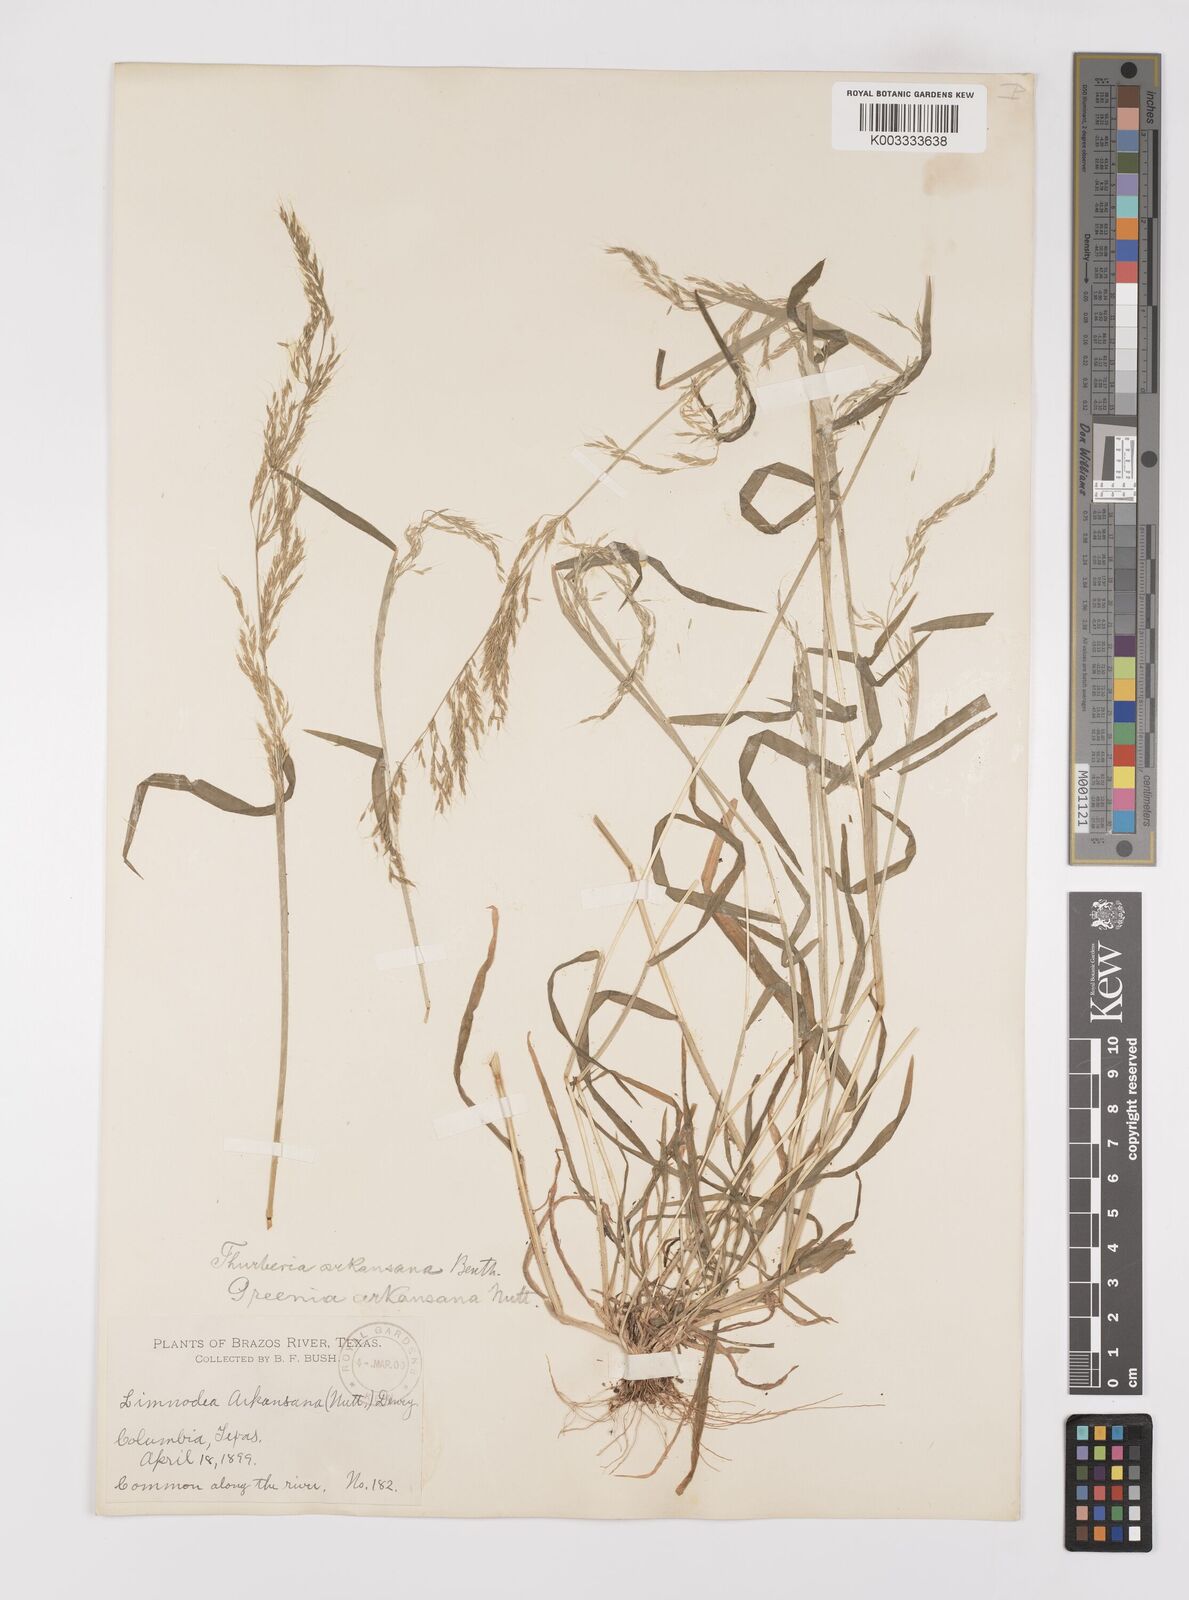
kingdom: Plantae
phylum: Tracheophyta
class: Liliopsida
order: Poales
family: Poaceae
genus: Limnodea
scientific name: Limnodea arkansana
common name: Ozark-grass
